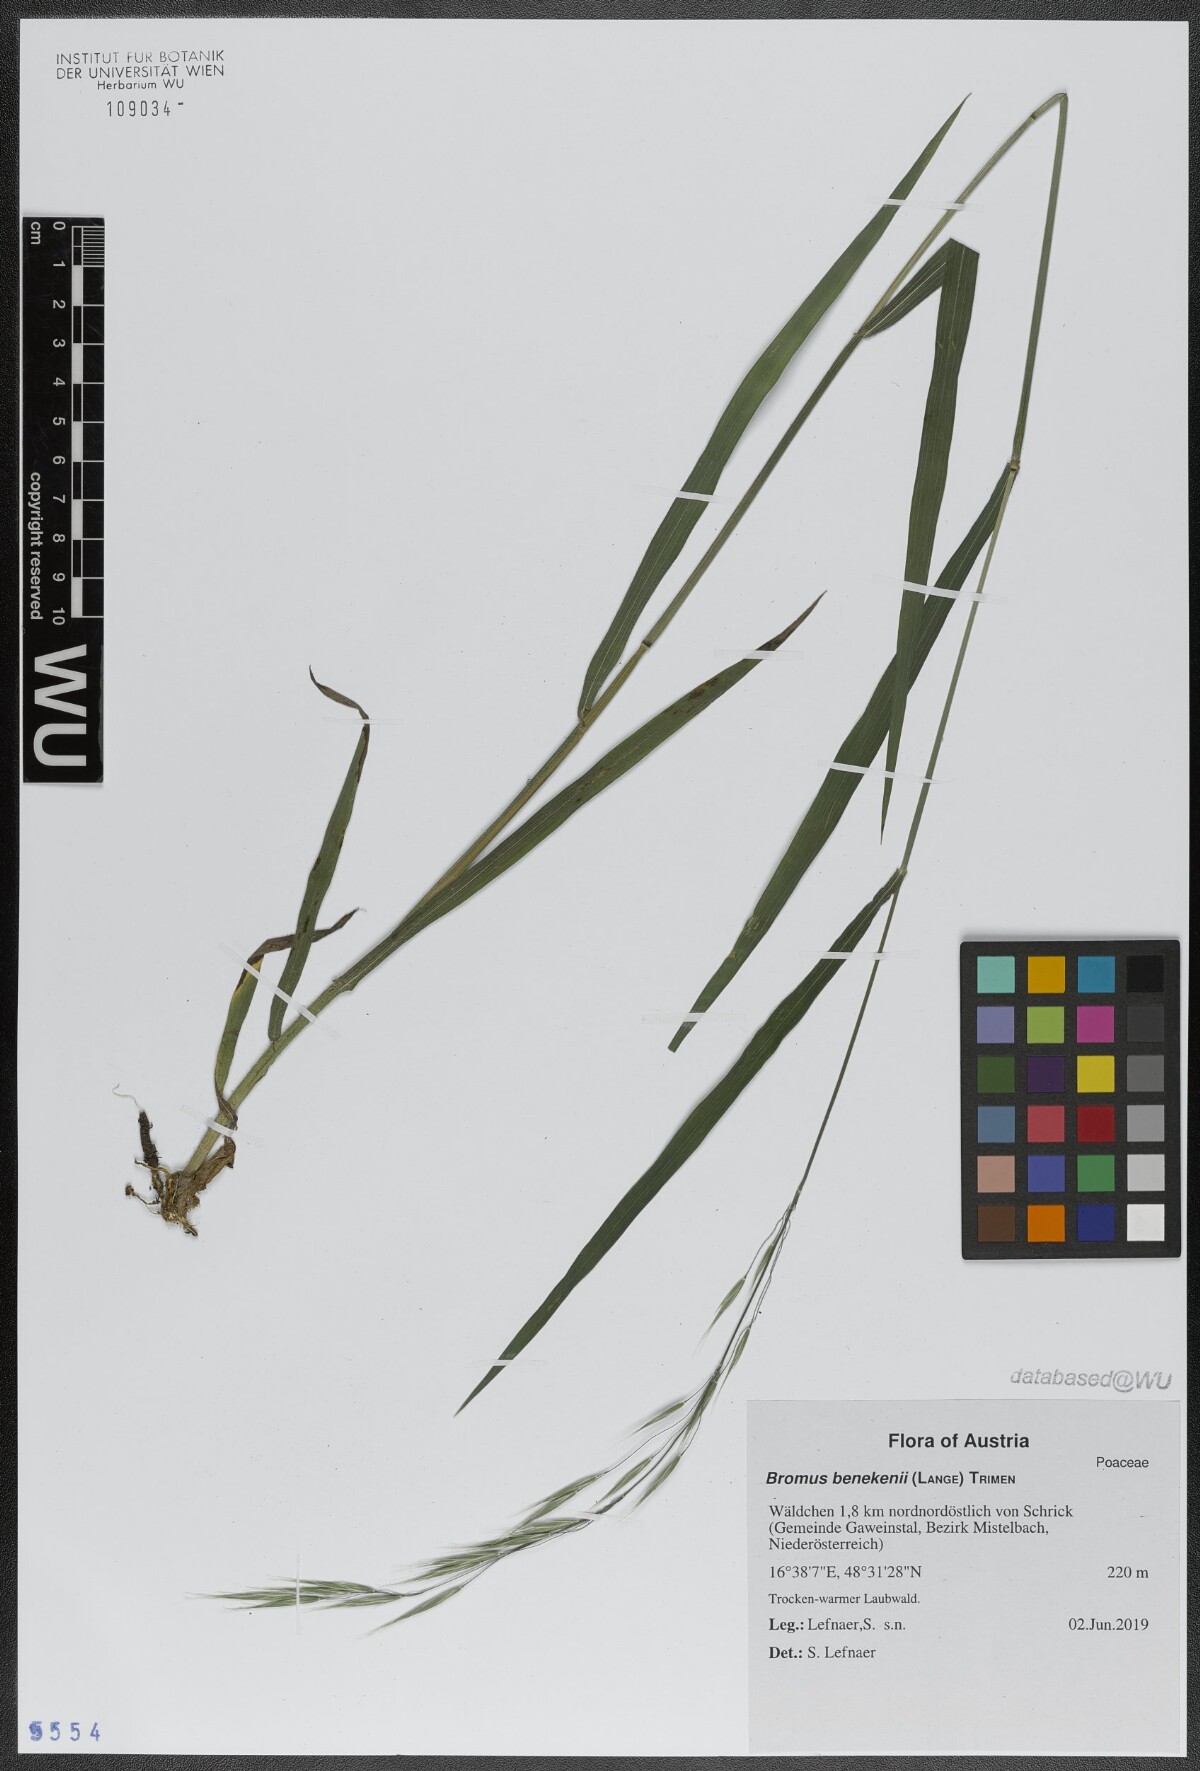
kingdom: Plantae
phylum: Tracheophyta
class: Liliopsida
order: Poales
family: Poaceae
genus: Bromus
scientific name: Bromus benekenii
